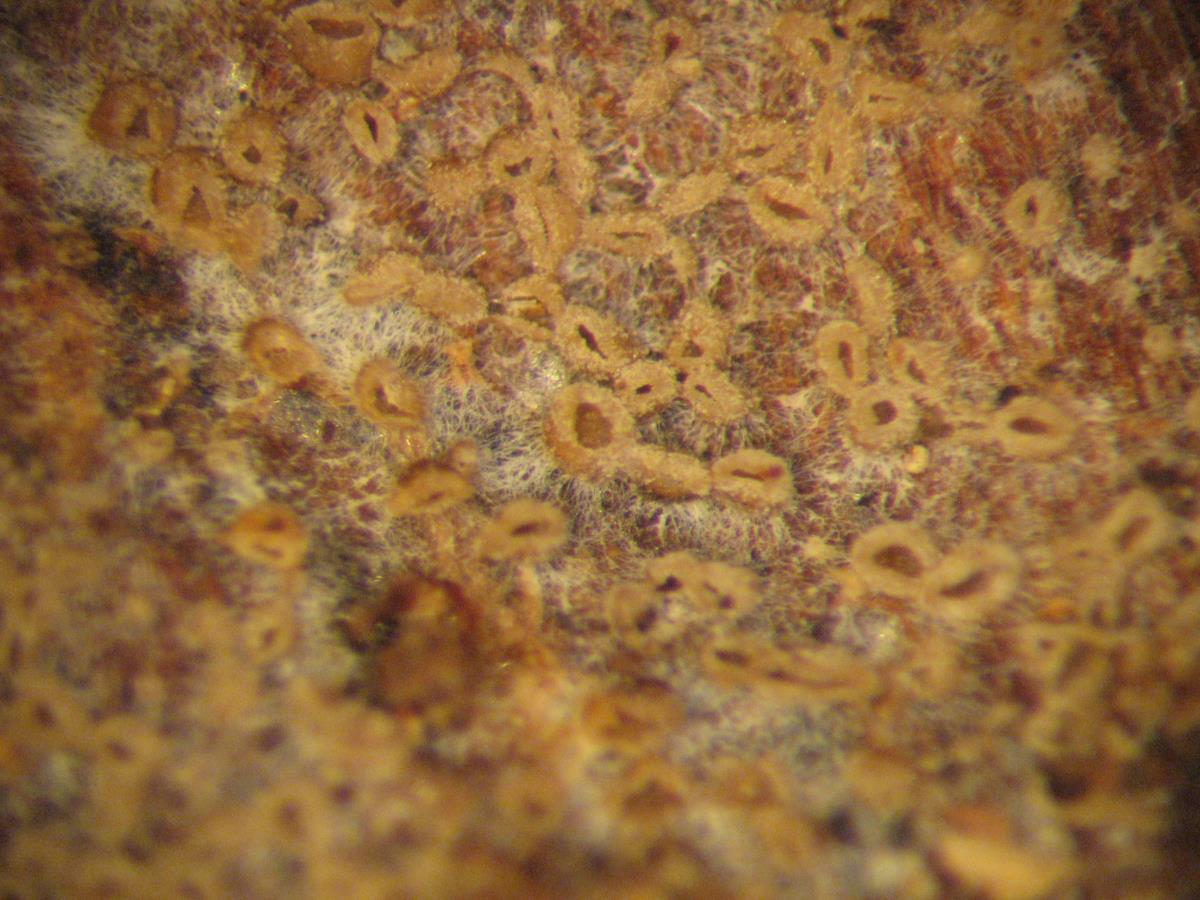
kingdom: Fungi
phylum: Basidiomycota
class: Agaricomycetes
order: Agaricales
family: Pleurotaceae
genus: Resupinatus
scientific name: Resupinatus urceolatus
